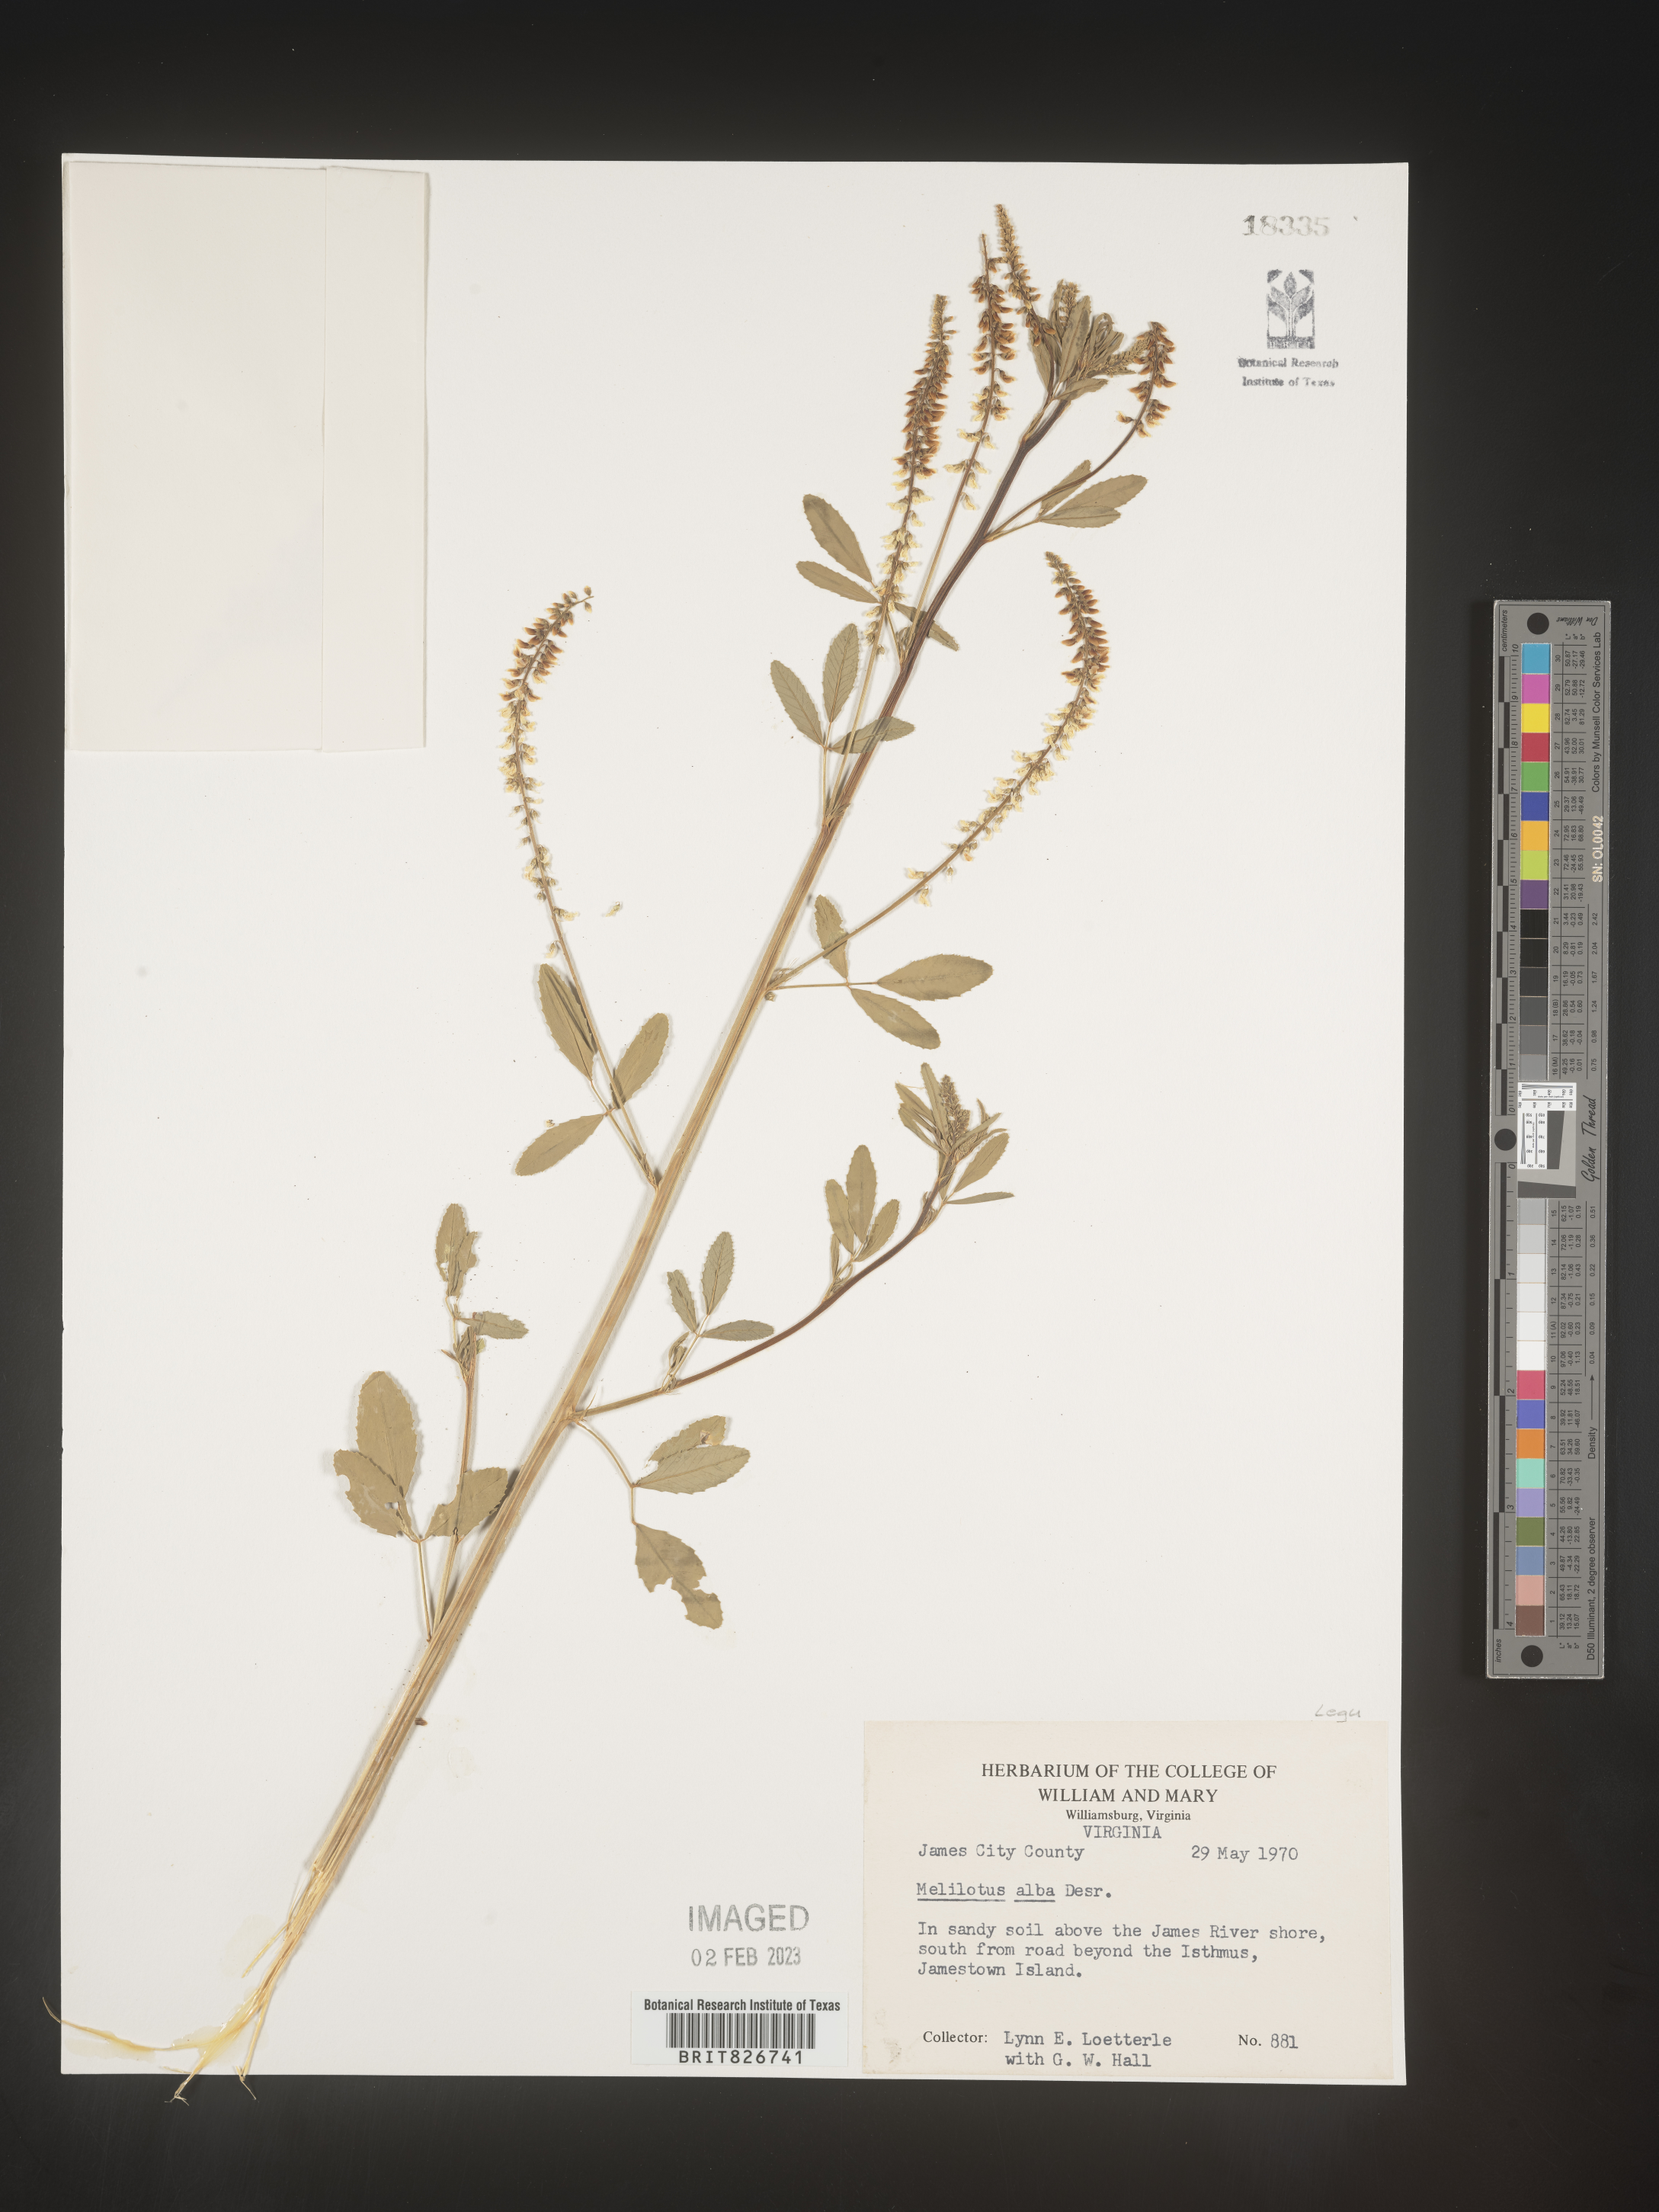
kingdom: Plantae
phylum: Tracheophyta
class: Magnoliopsida
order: Fabales
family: Fabaceae
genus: Melilotus
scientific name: Melilotus albus
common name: White melilot
